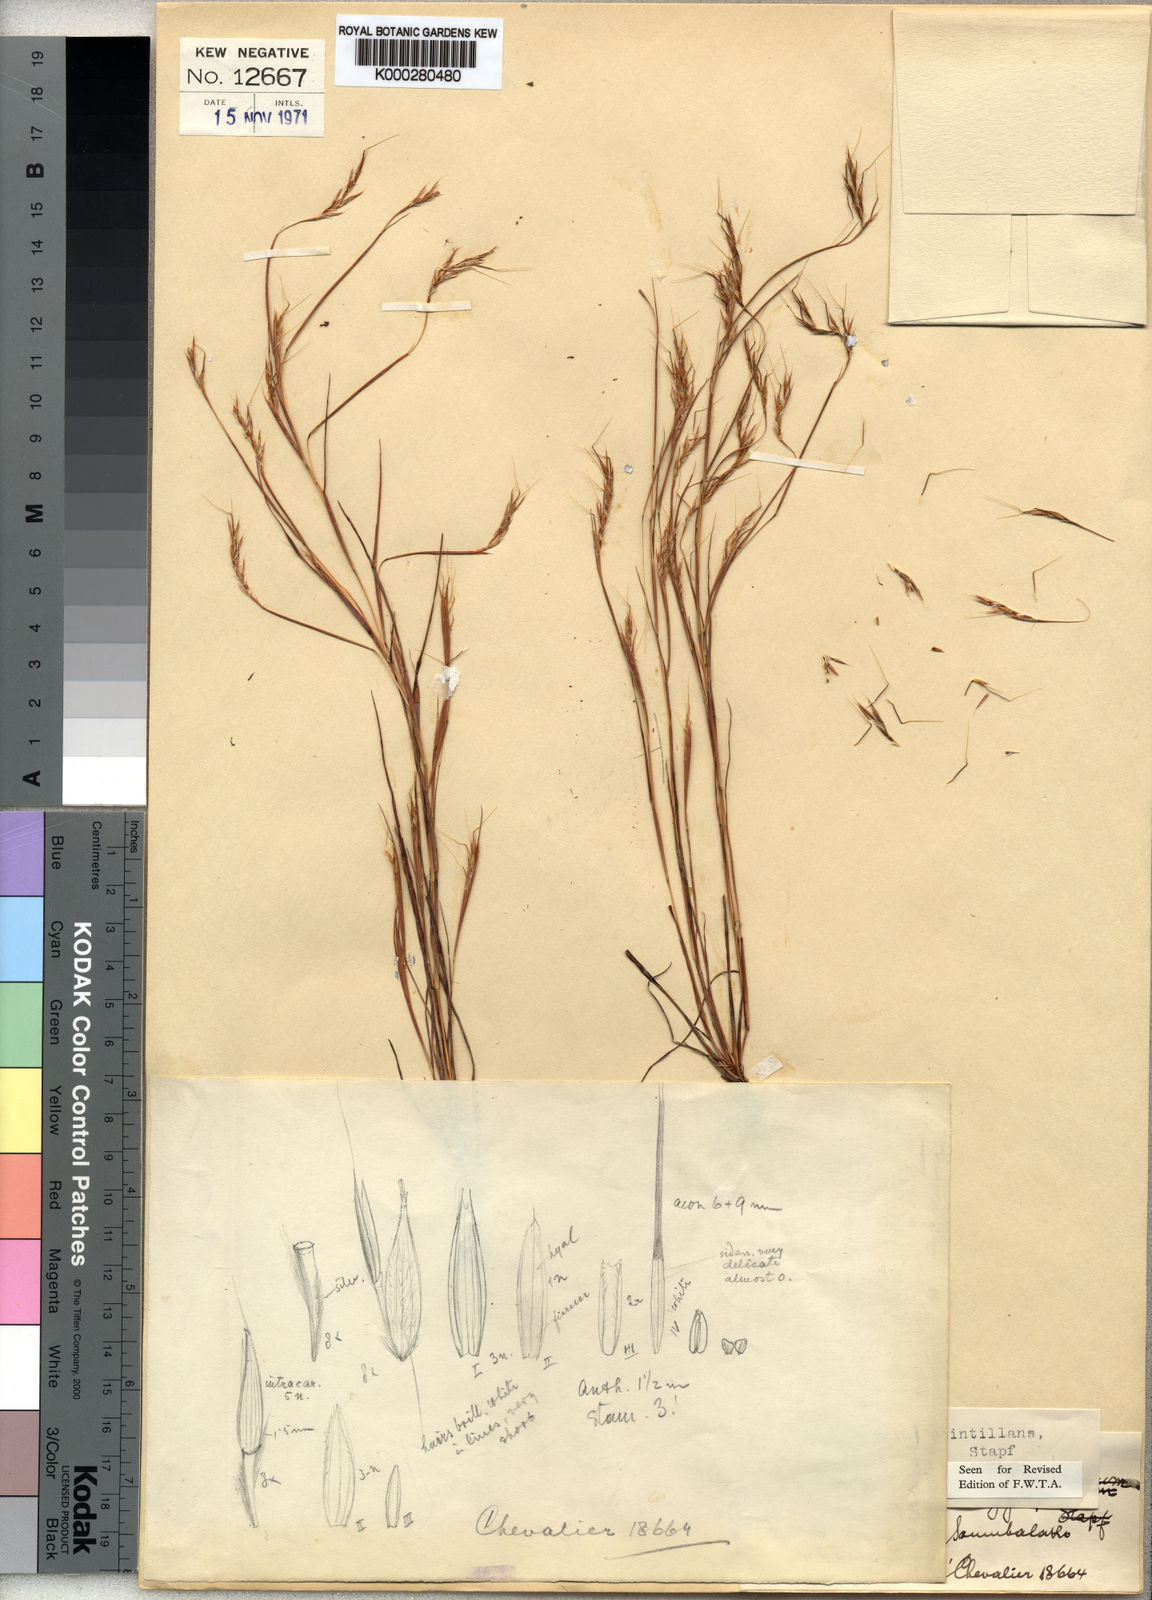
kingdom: Plantae
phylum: Tracheophyta
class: Liliopsida
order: Poales
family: Poaceae
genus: Schizachyrium
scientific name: Schizachyrium scintillans
